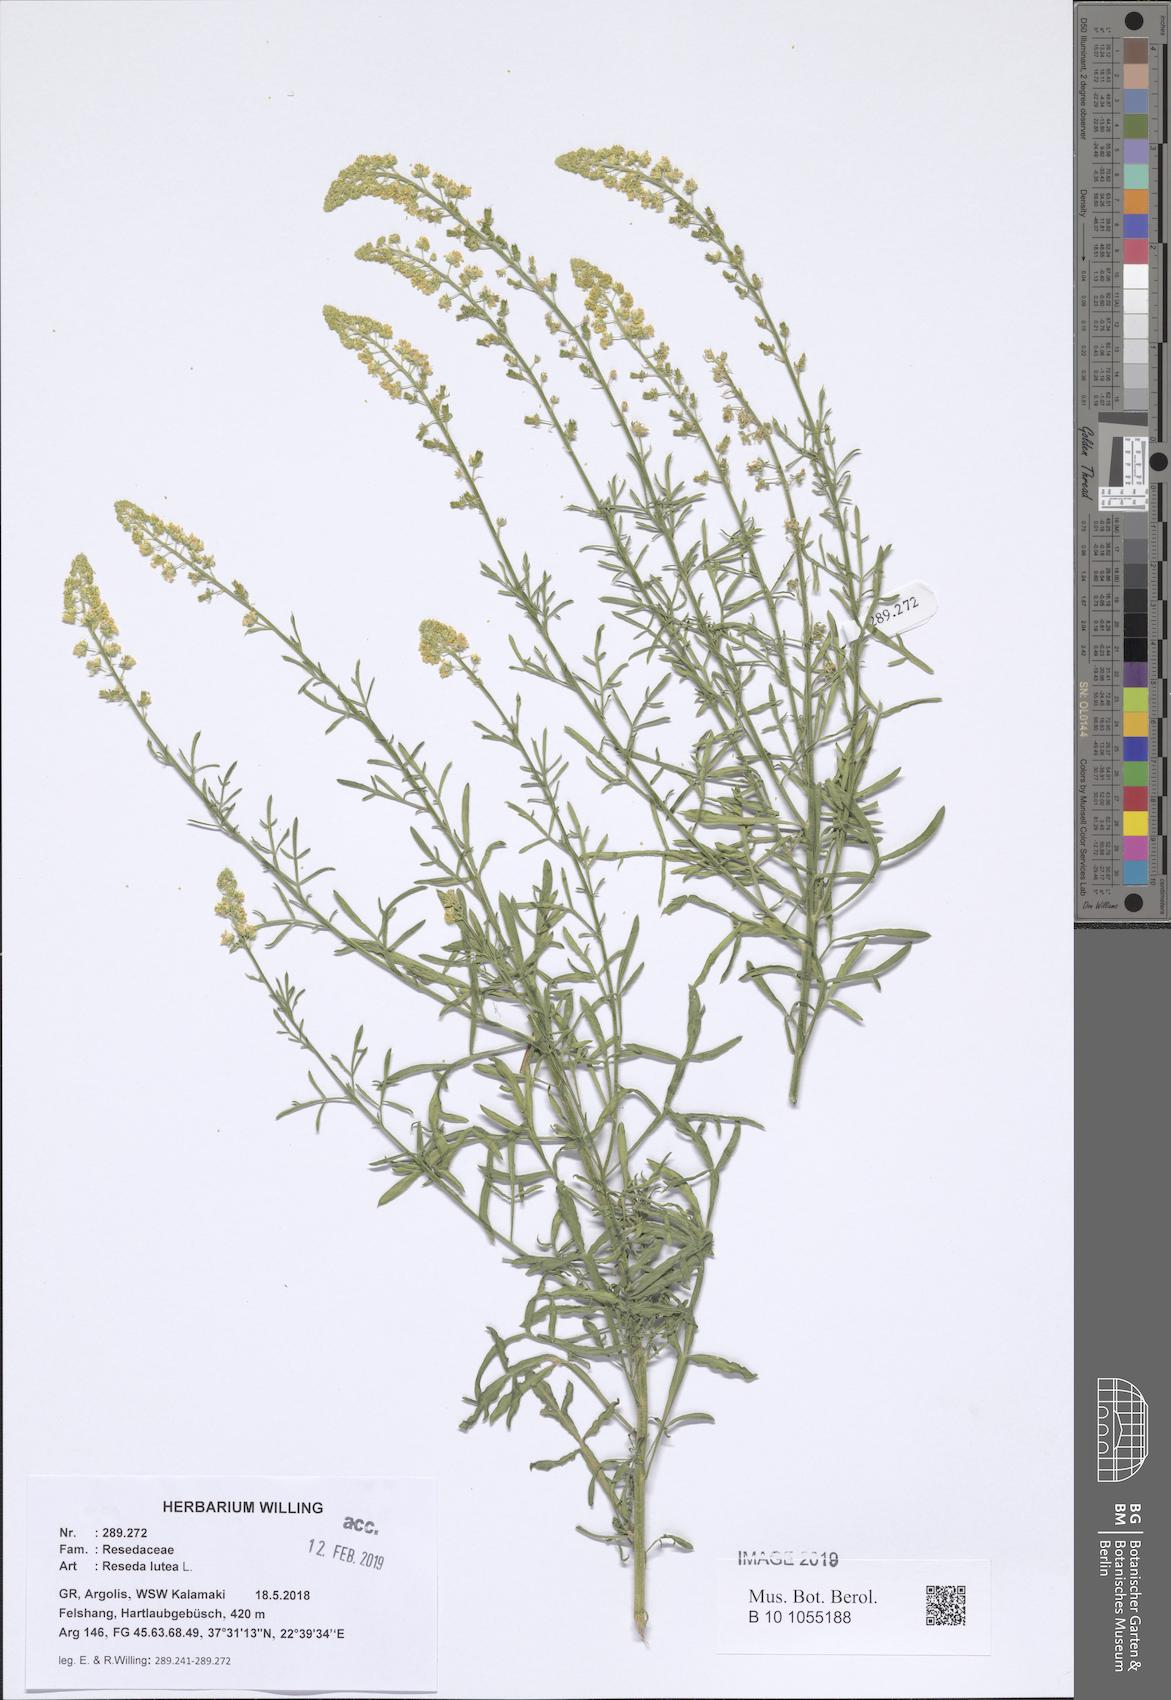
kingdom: Plantae
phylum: Tracheophyta
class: Magnoliopsida
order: Brassicales
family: Resedaceae
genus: Reseda
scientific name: Reseda lutea
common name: Wild mignonette
